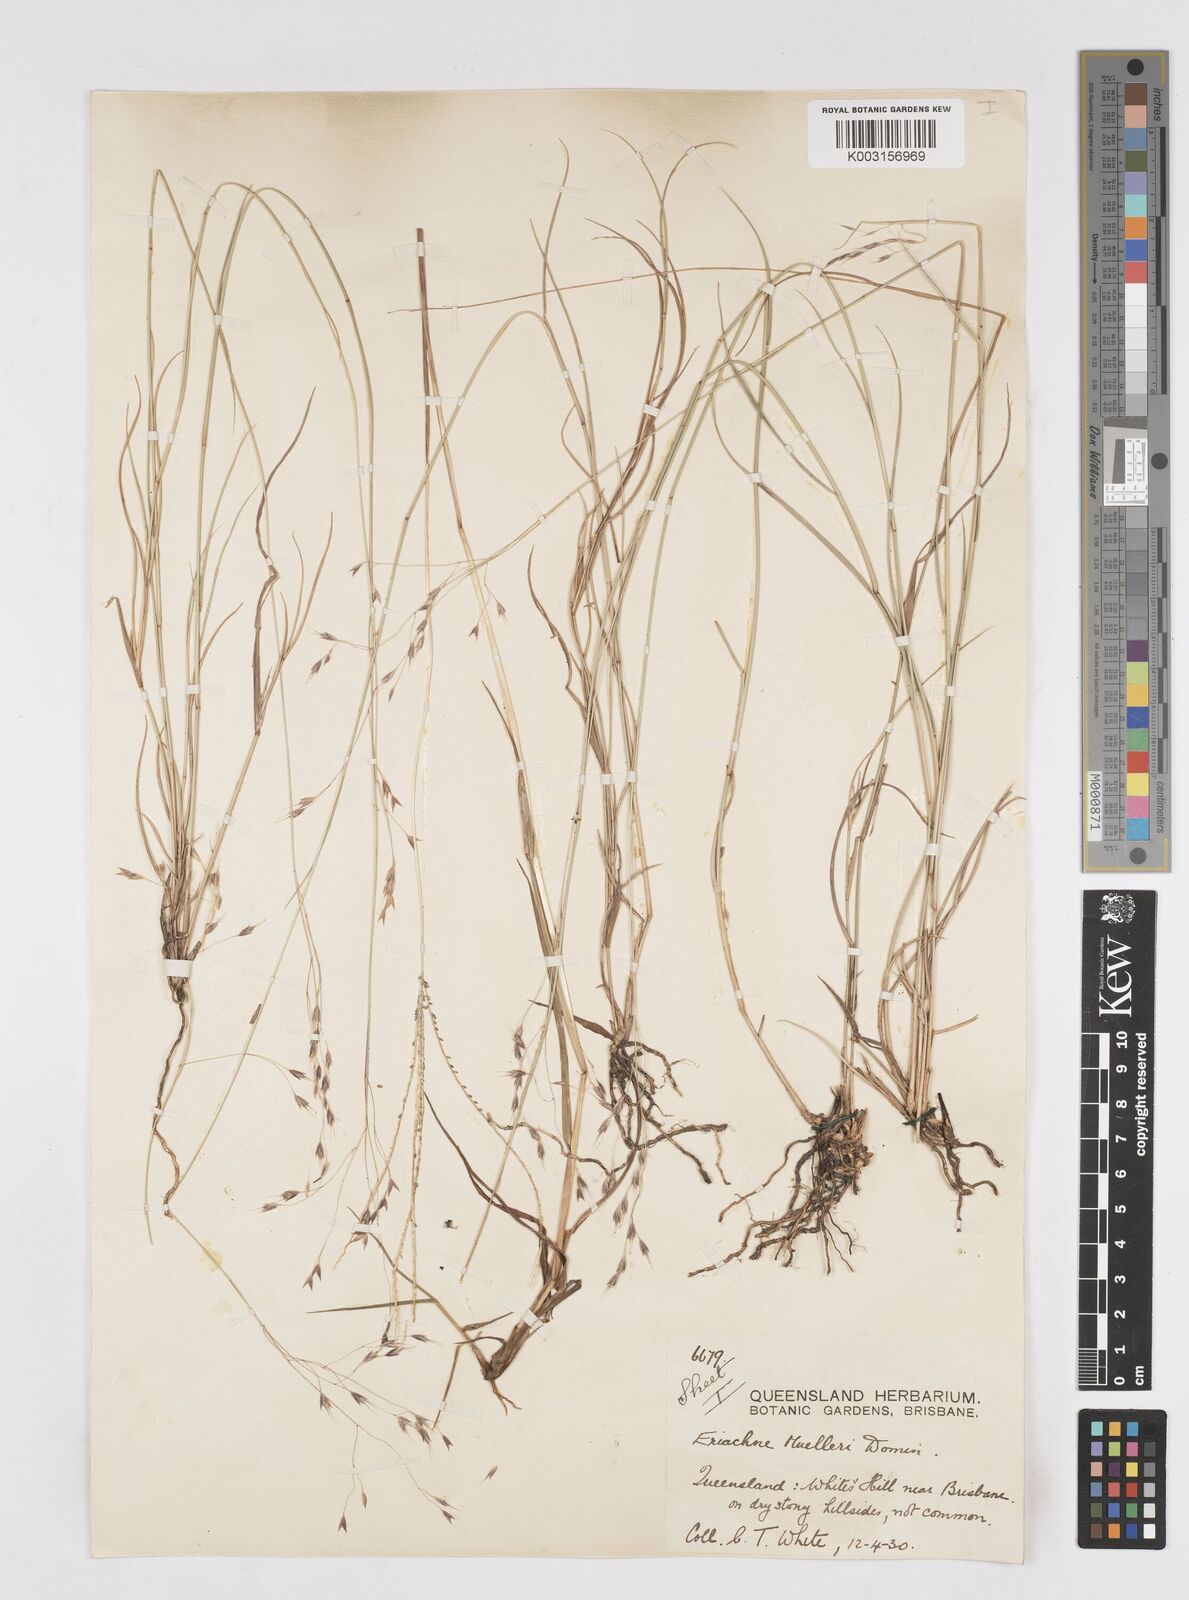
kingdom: Plantae
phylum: Tracheophyta
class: Liliopsida
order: Poales
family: Poaceae
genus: Eriachne
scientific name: Eriachne pallescens
